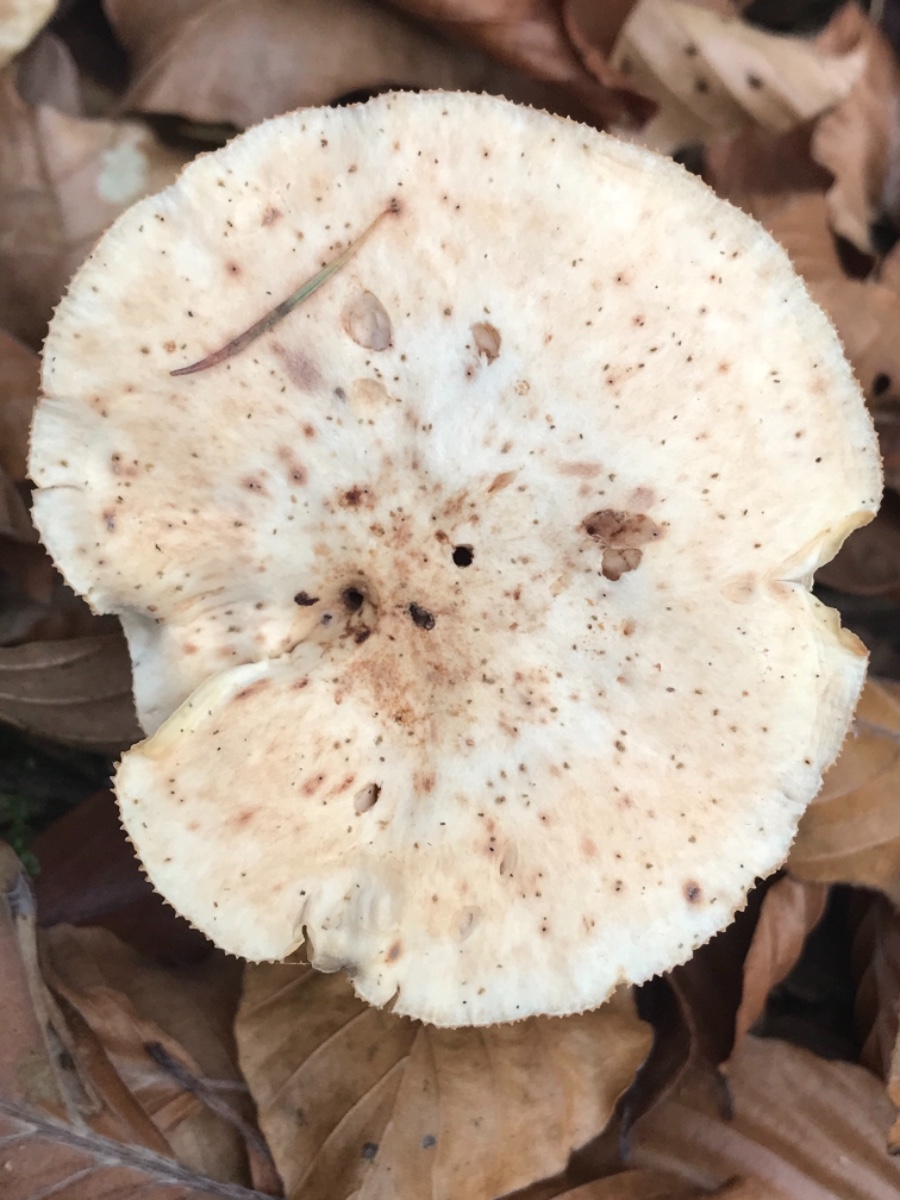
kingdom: Fungi
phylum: Basidiomycota
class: Agaricomycetes
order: Agaricales
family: Omphalotaceae
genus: Rhodocollybia
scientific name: Rhodocollybia maculata
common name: plettet fladhat
